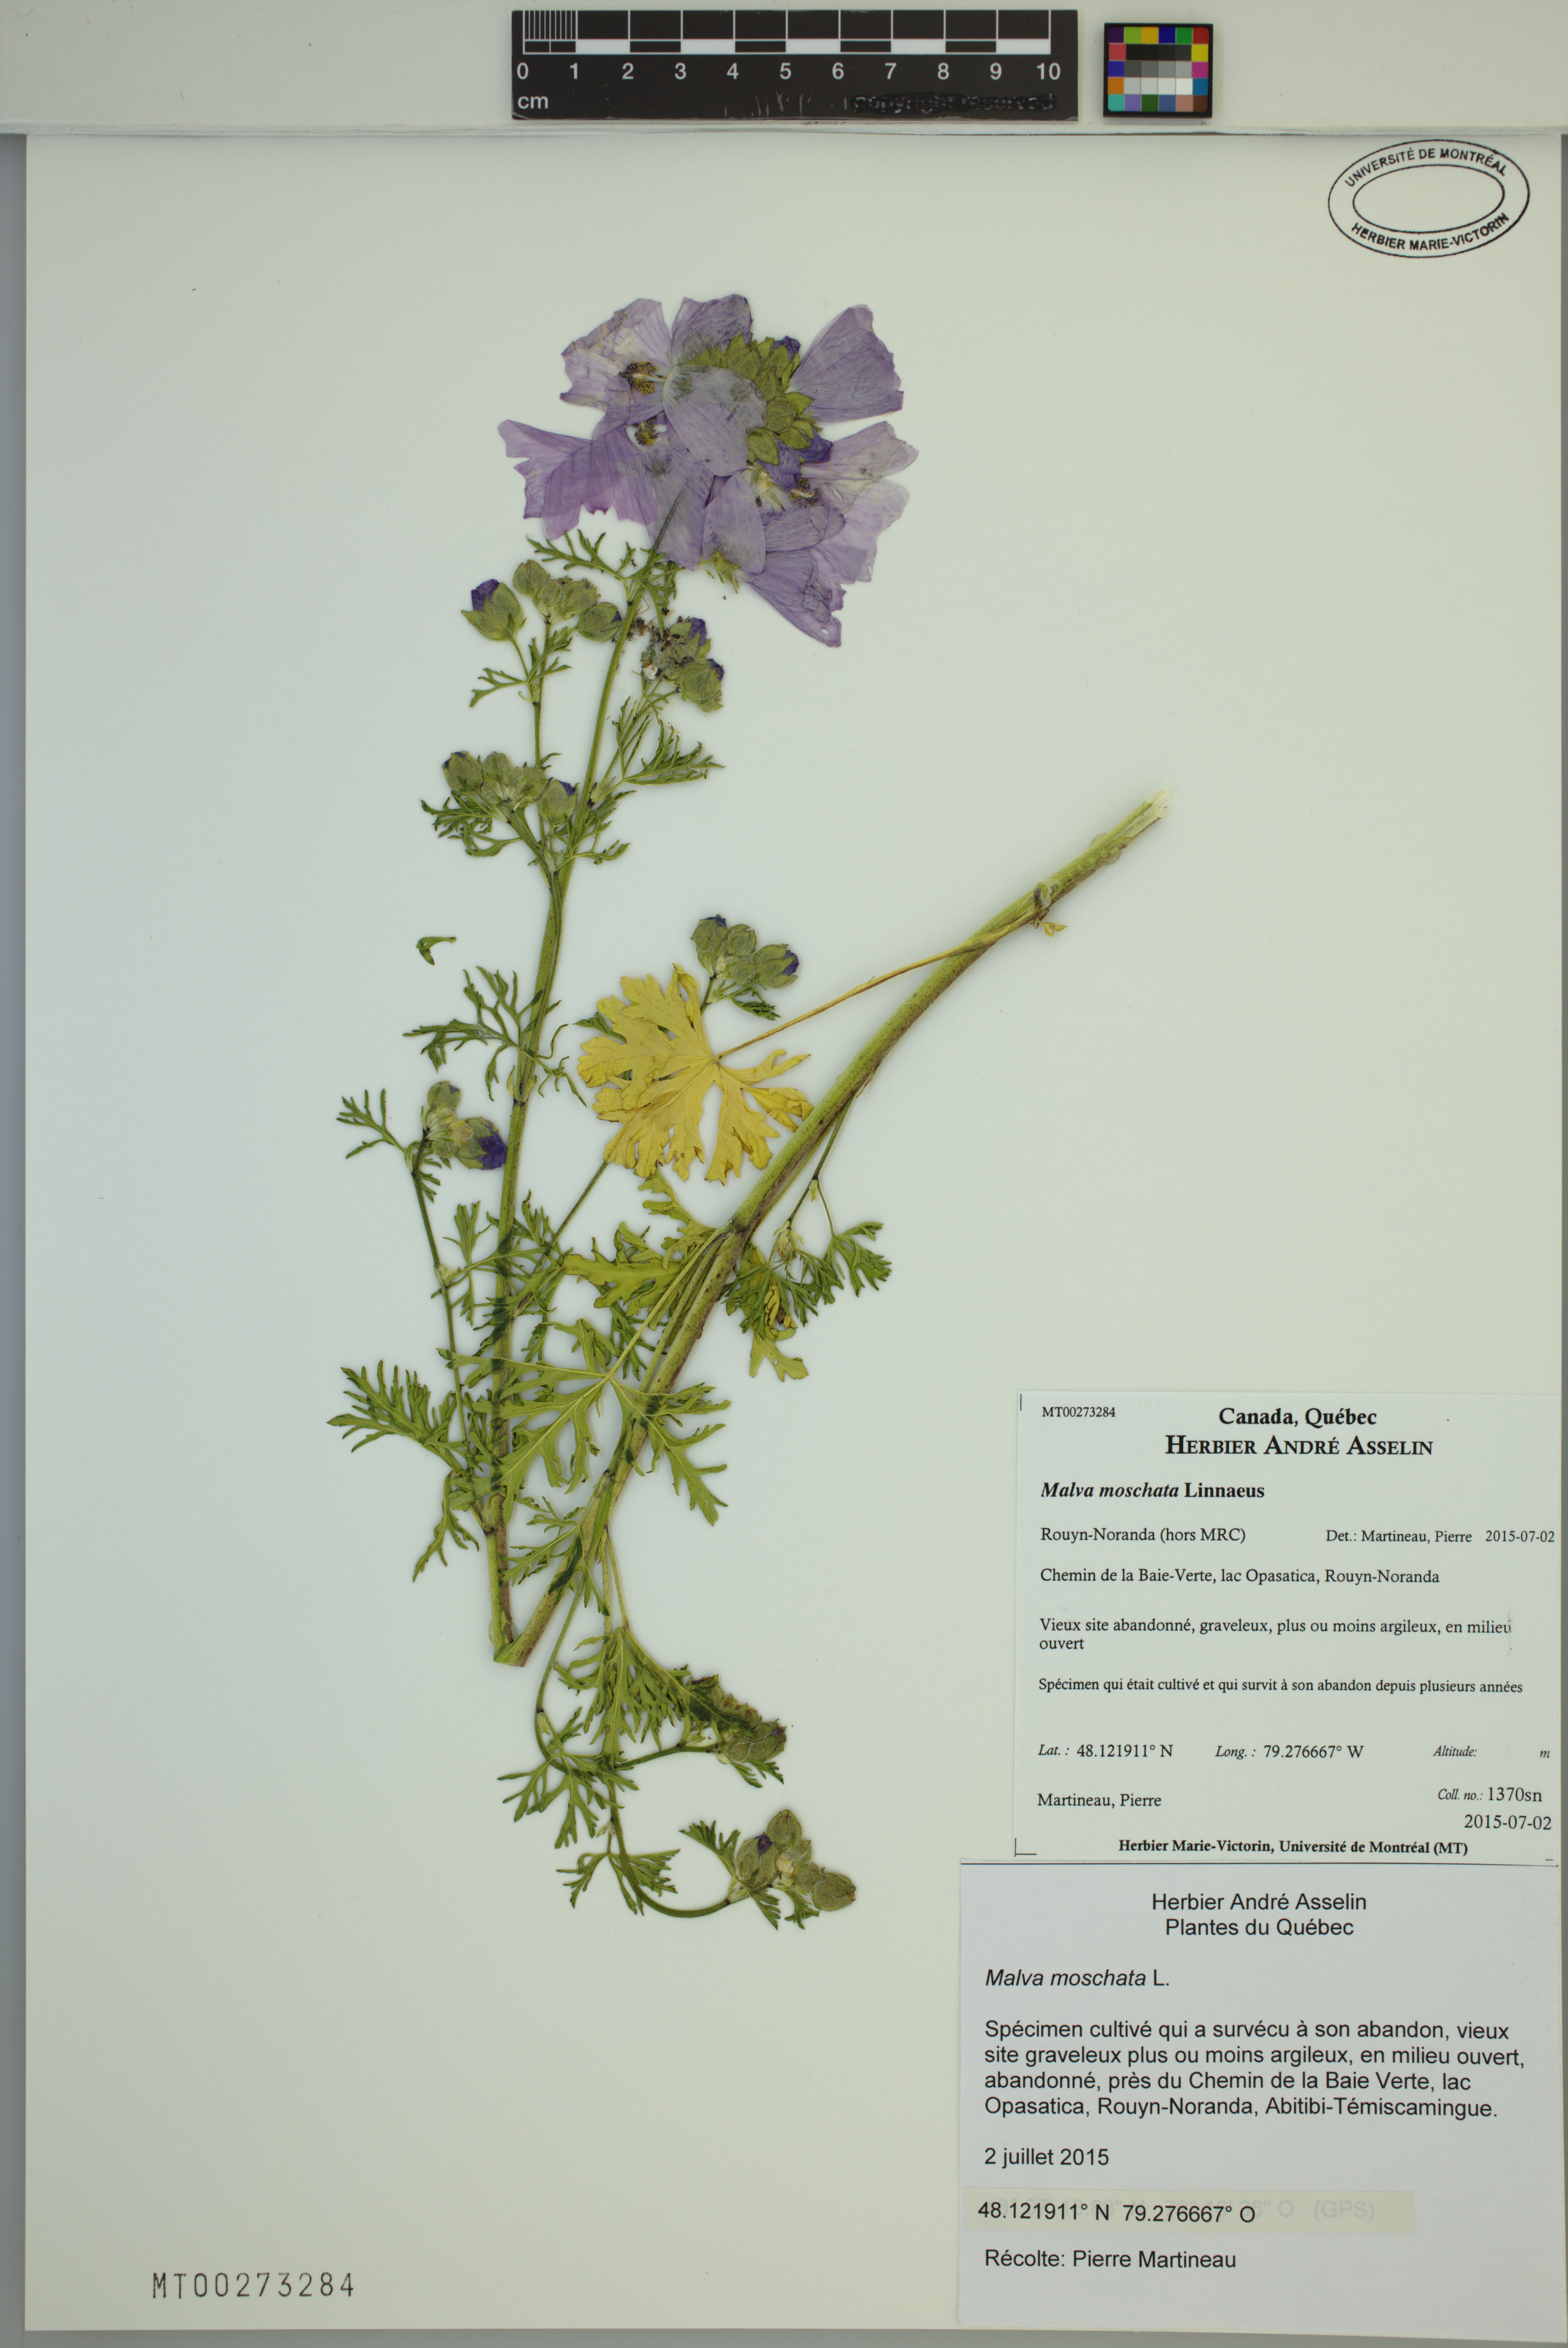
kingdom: Plantae
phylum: Tracheophyta
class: Magnoliopsida
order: Malvales
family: Malvaceae
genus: Malva
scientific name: Malva moschata
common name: Musk mallow
